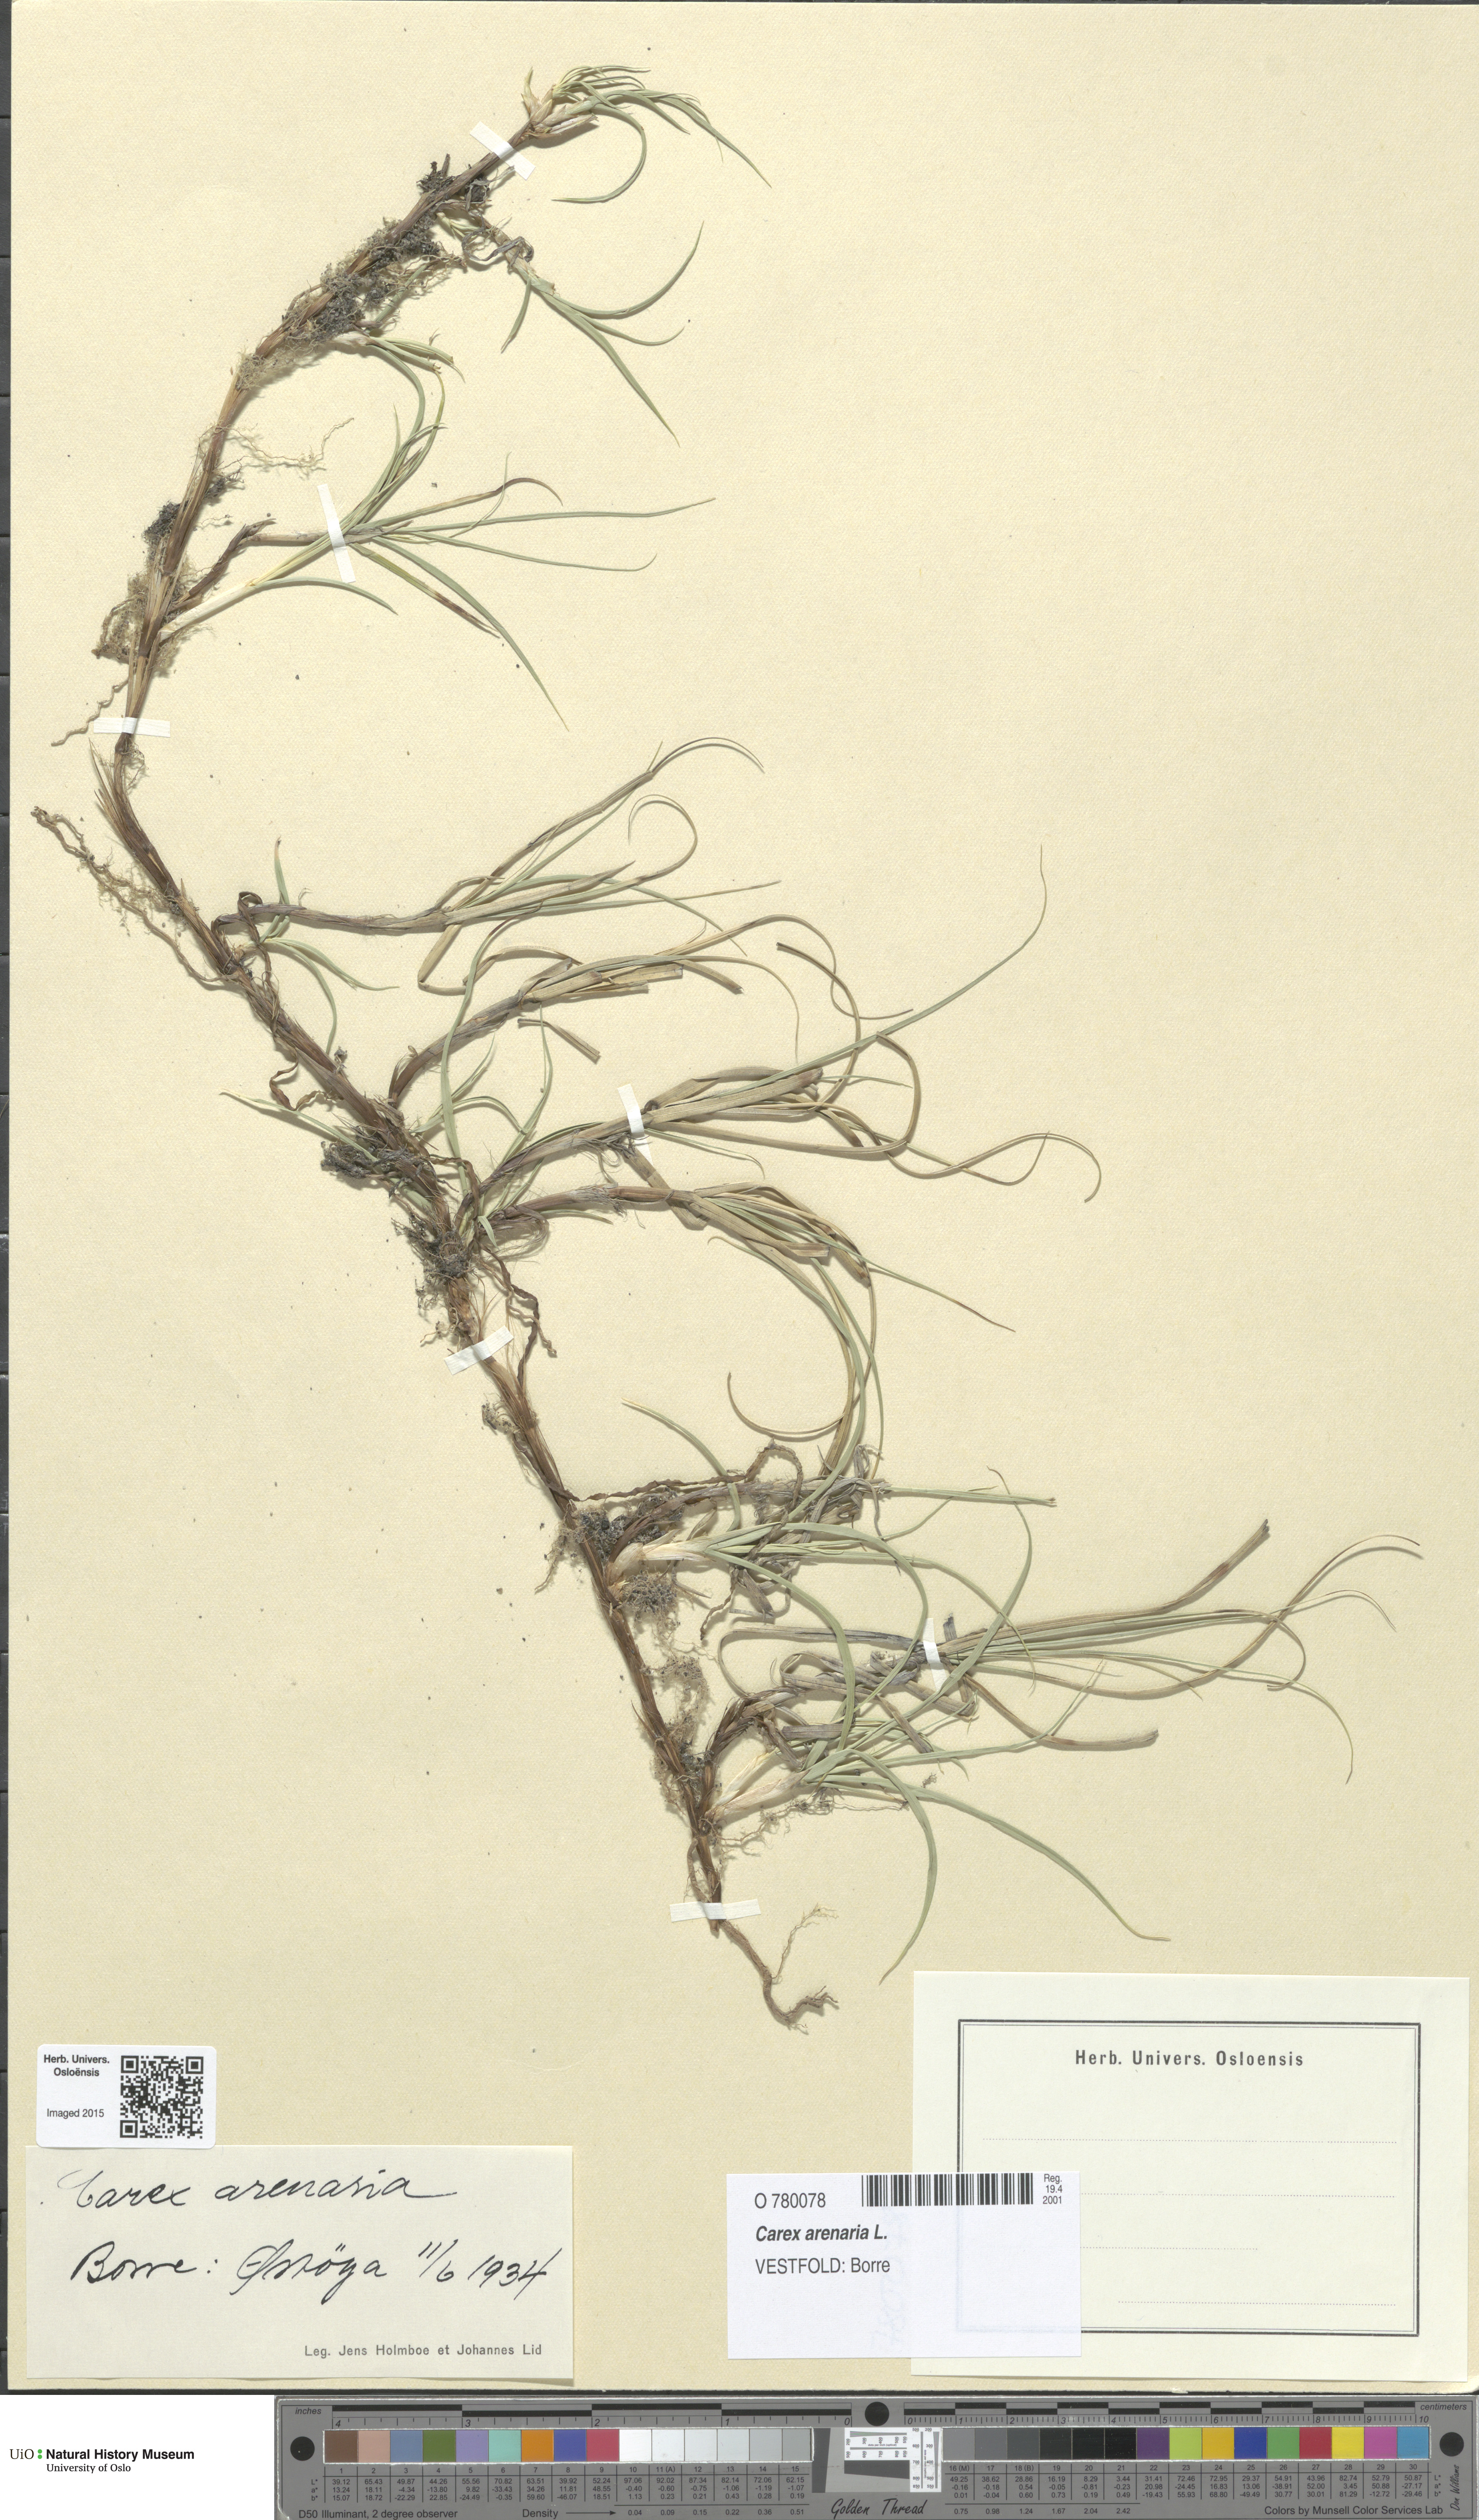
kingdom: Plantae
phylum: Tracheophyta
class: Liliopsida
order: Poales
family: Cyperaceae
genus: Carex
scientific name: Carex arenaria
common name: Sand sedge
